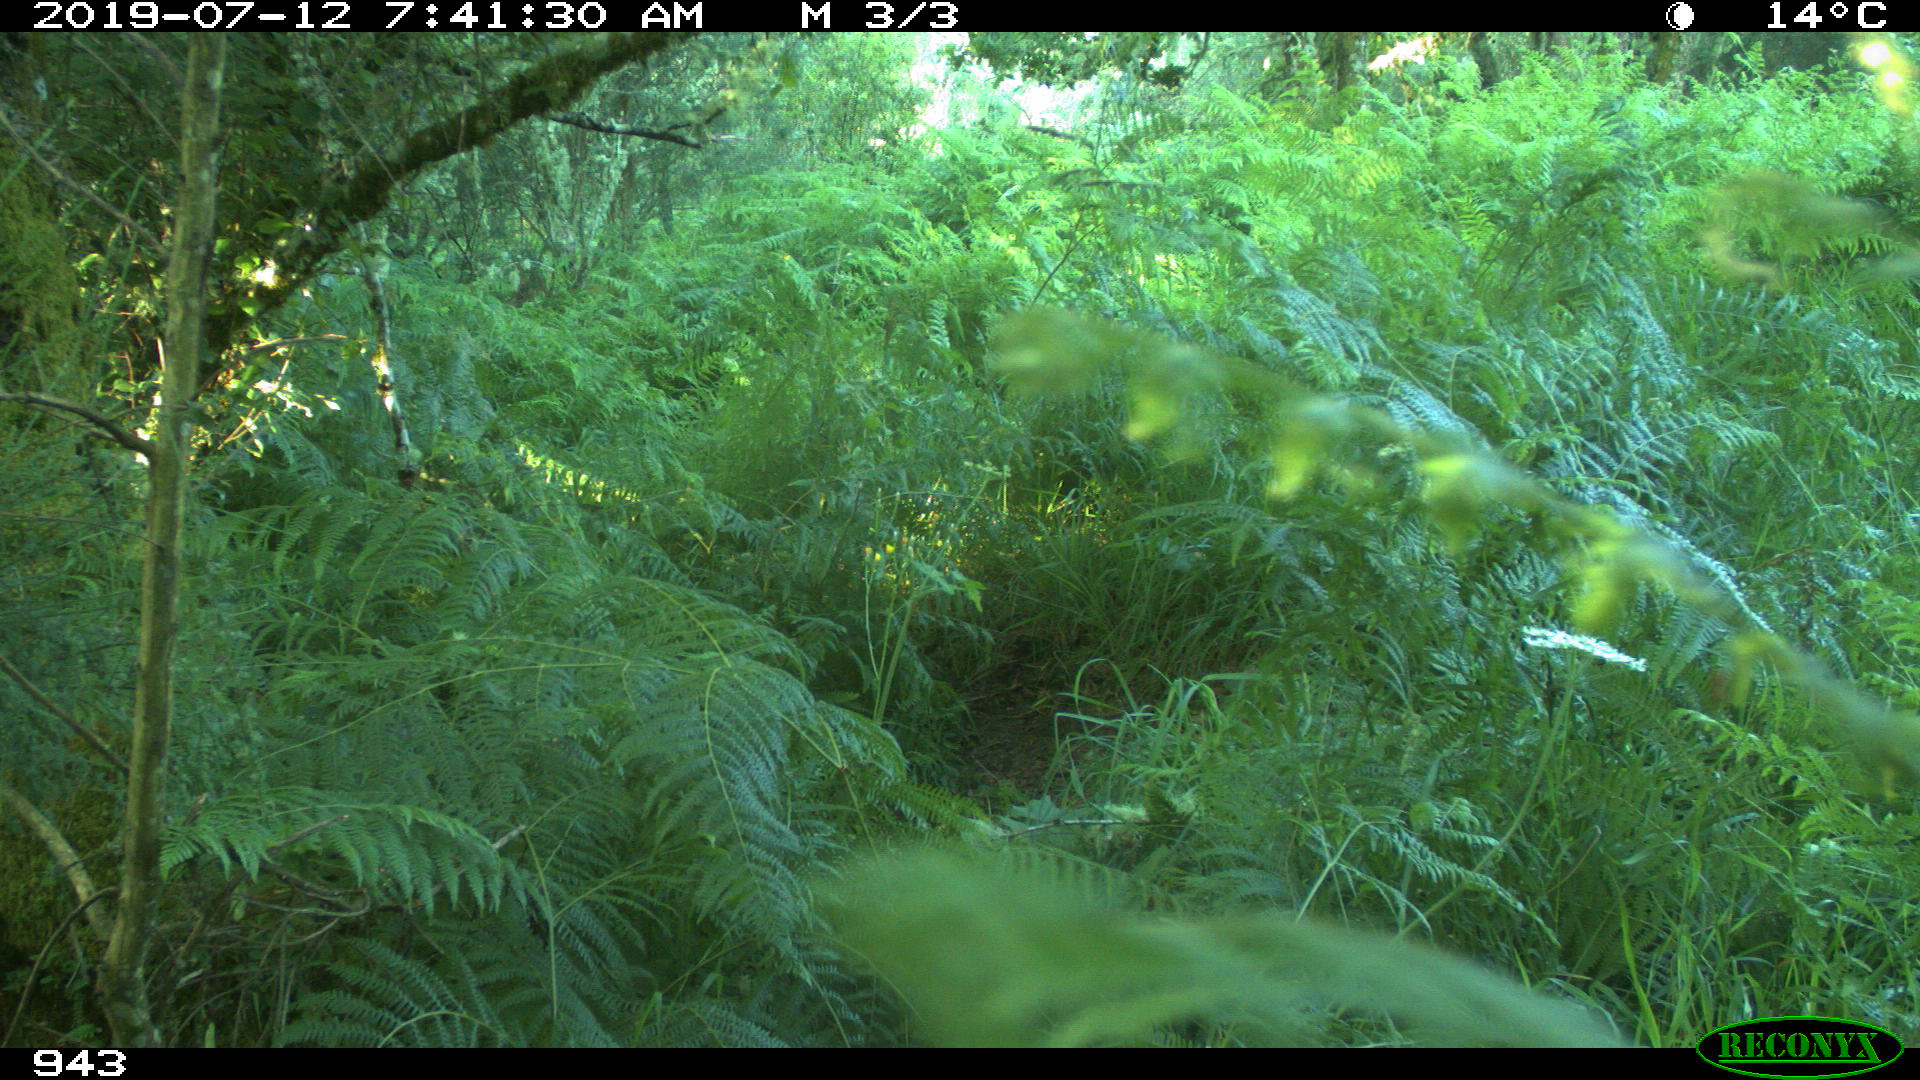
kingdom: Animalia
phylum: Chordata
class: Mammalia
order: Artiodactyla
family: Bovidae
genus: Bos
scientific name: Bos taurus
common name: Domesticated cattle
